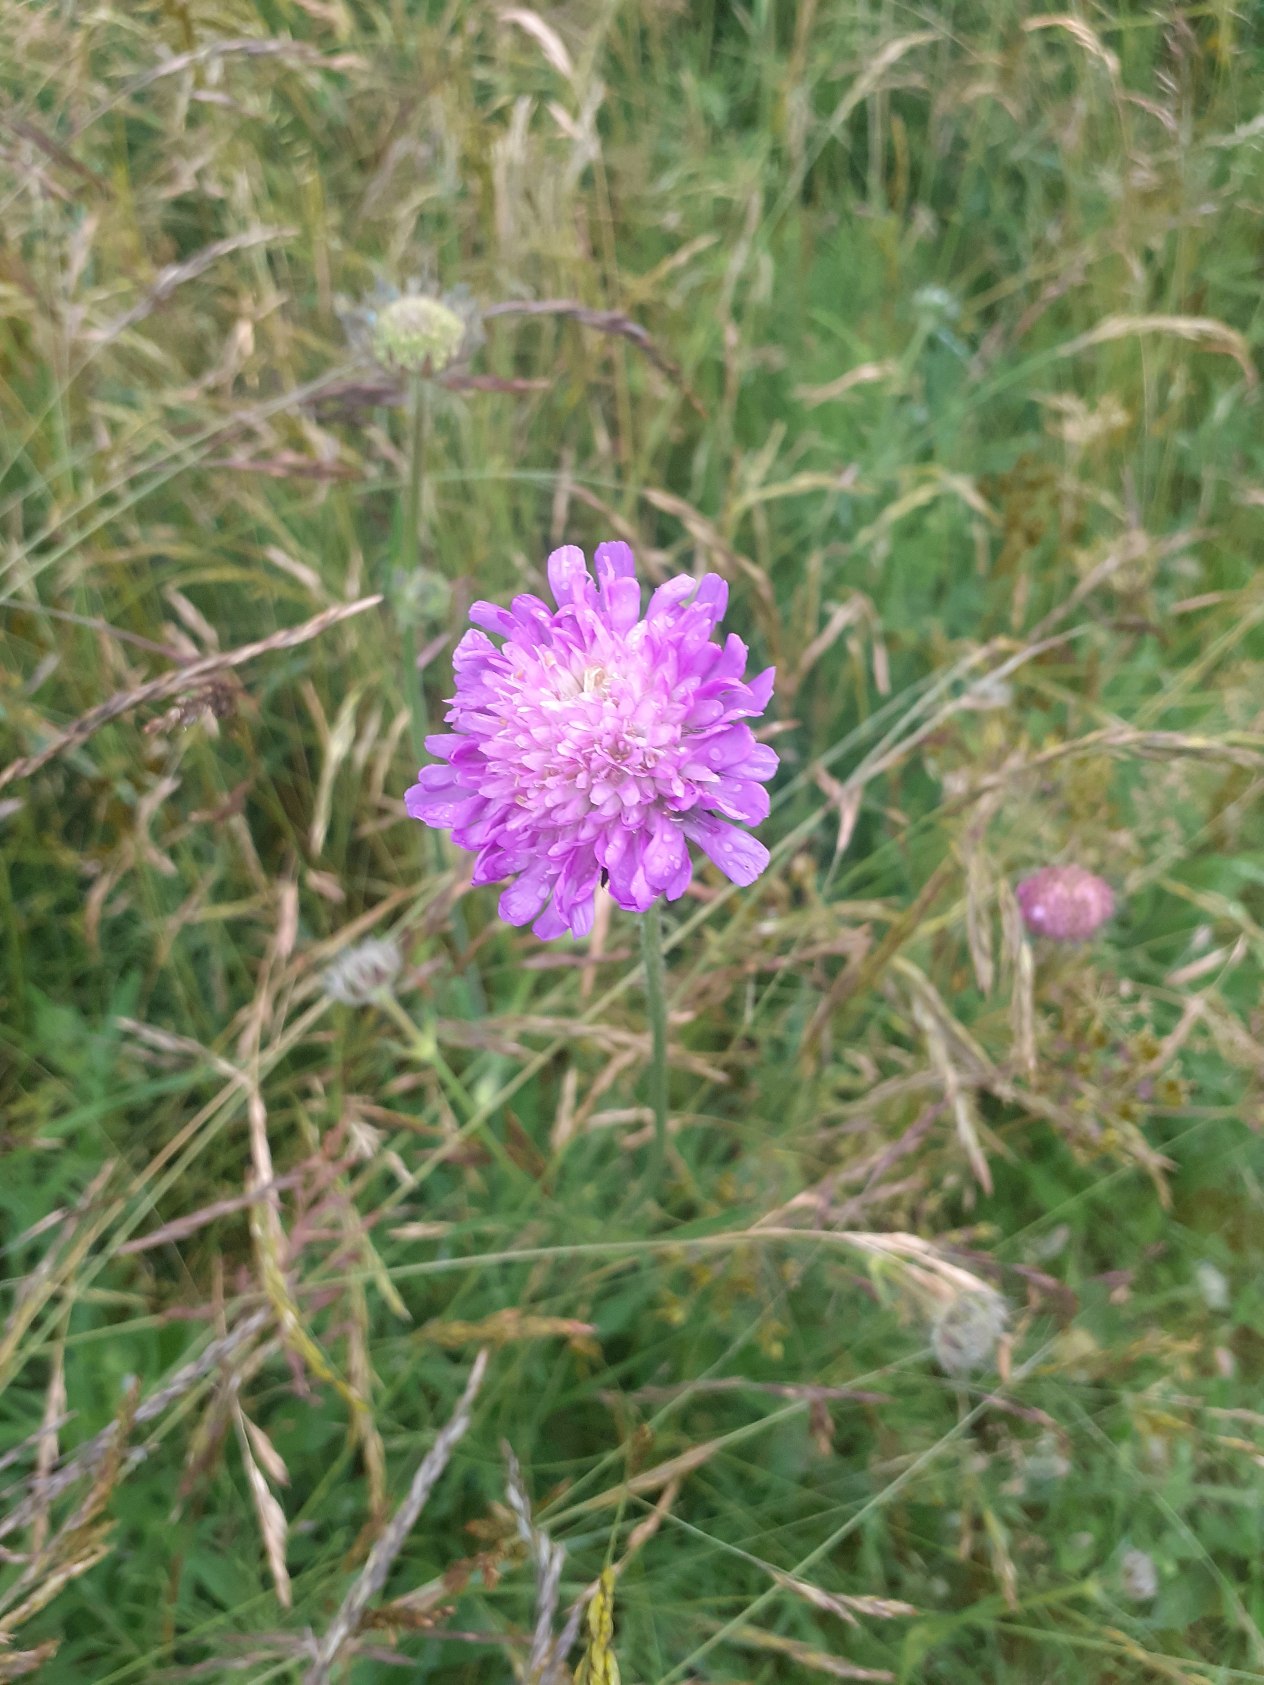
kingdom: Plantae
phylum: Tracheophyta
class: Magnoliopsida
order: Dipsacales
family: Caprifoliaceae
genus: Knautia
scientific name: Knautia arvensis
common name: Blåhat
